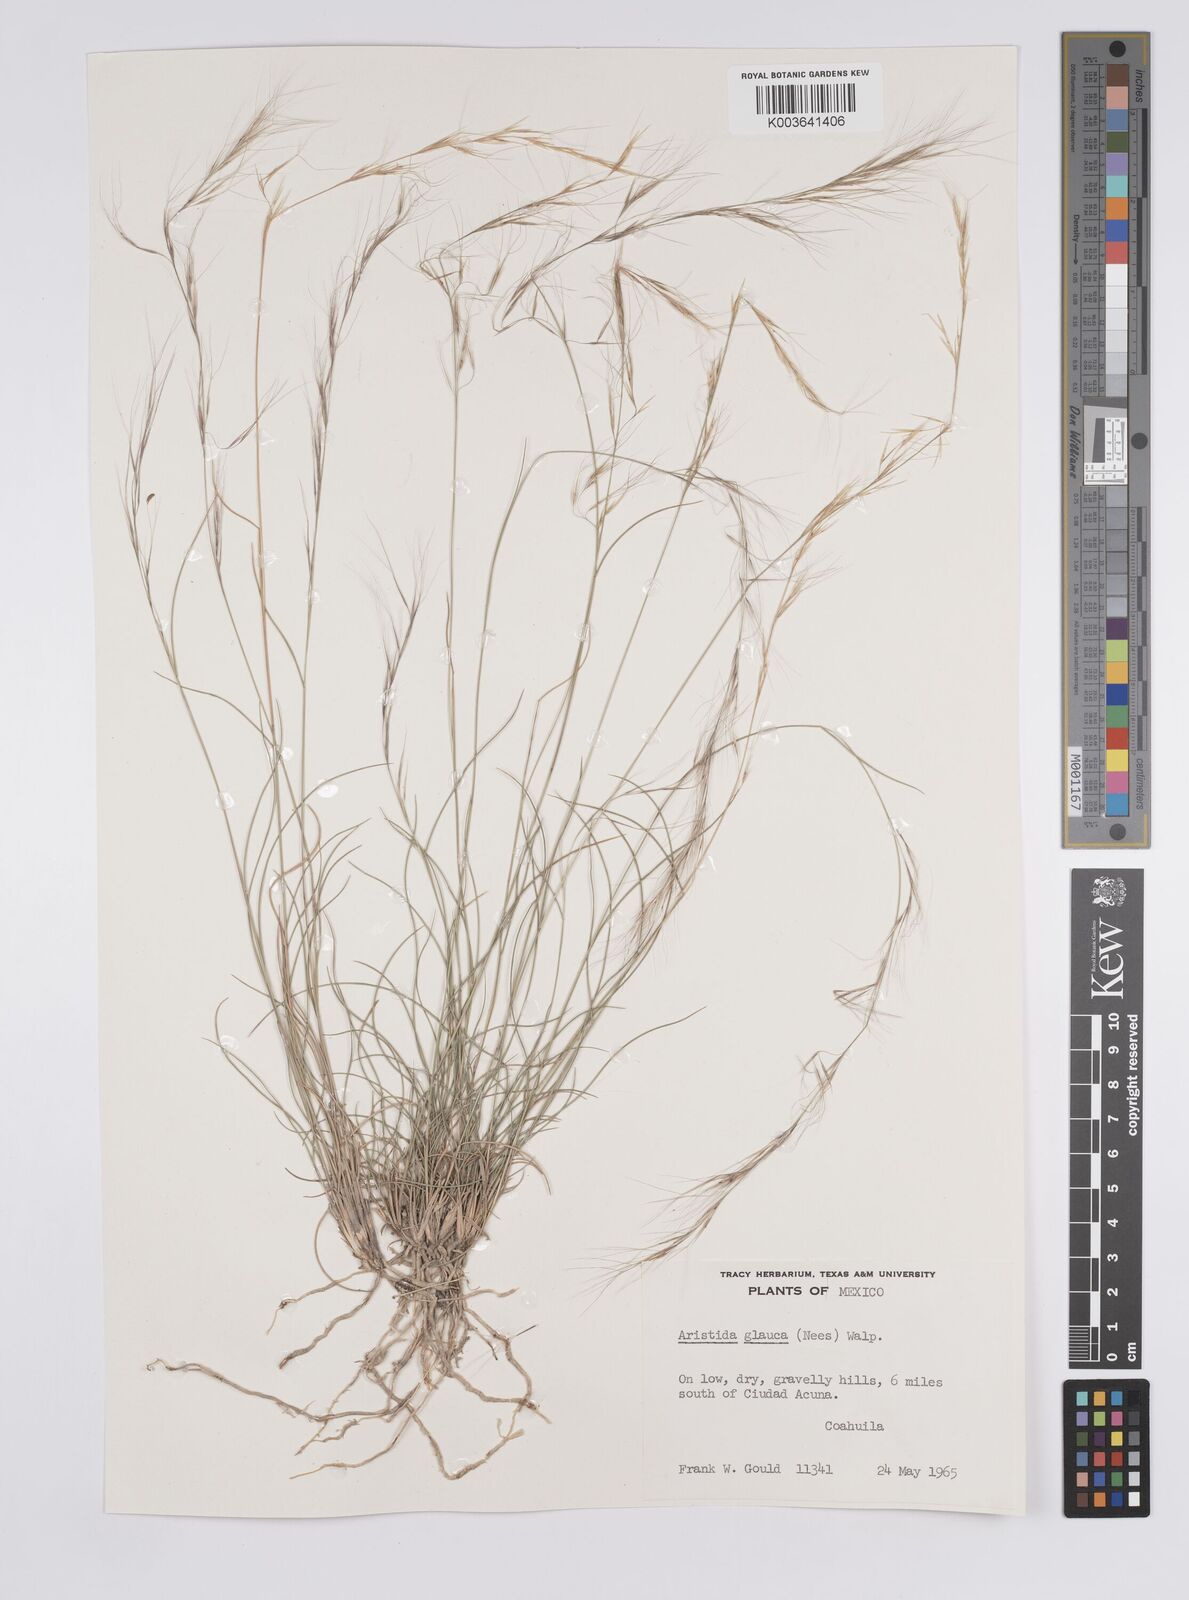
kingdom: Plantae
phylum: Tracheophyta
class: Liliopsida
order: Poales
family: Poaceae
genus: Aristida
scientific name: Aristida purpurea
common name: Purple threeawn
